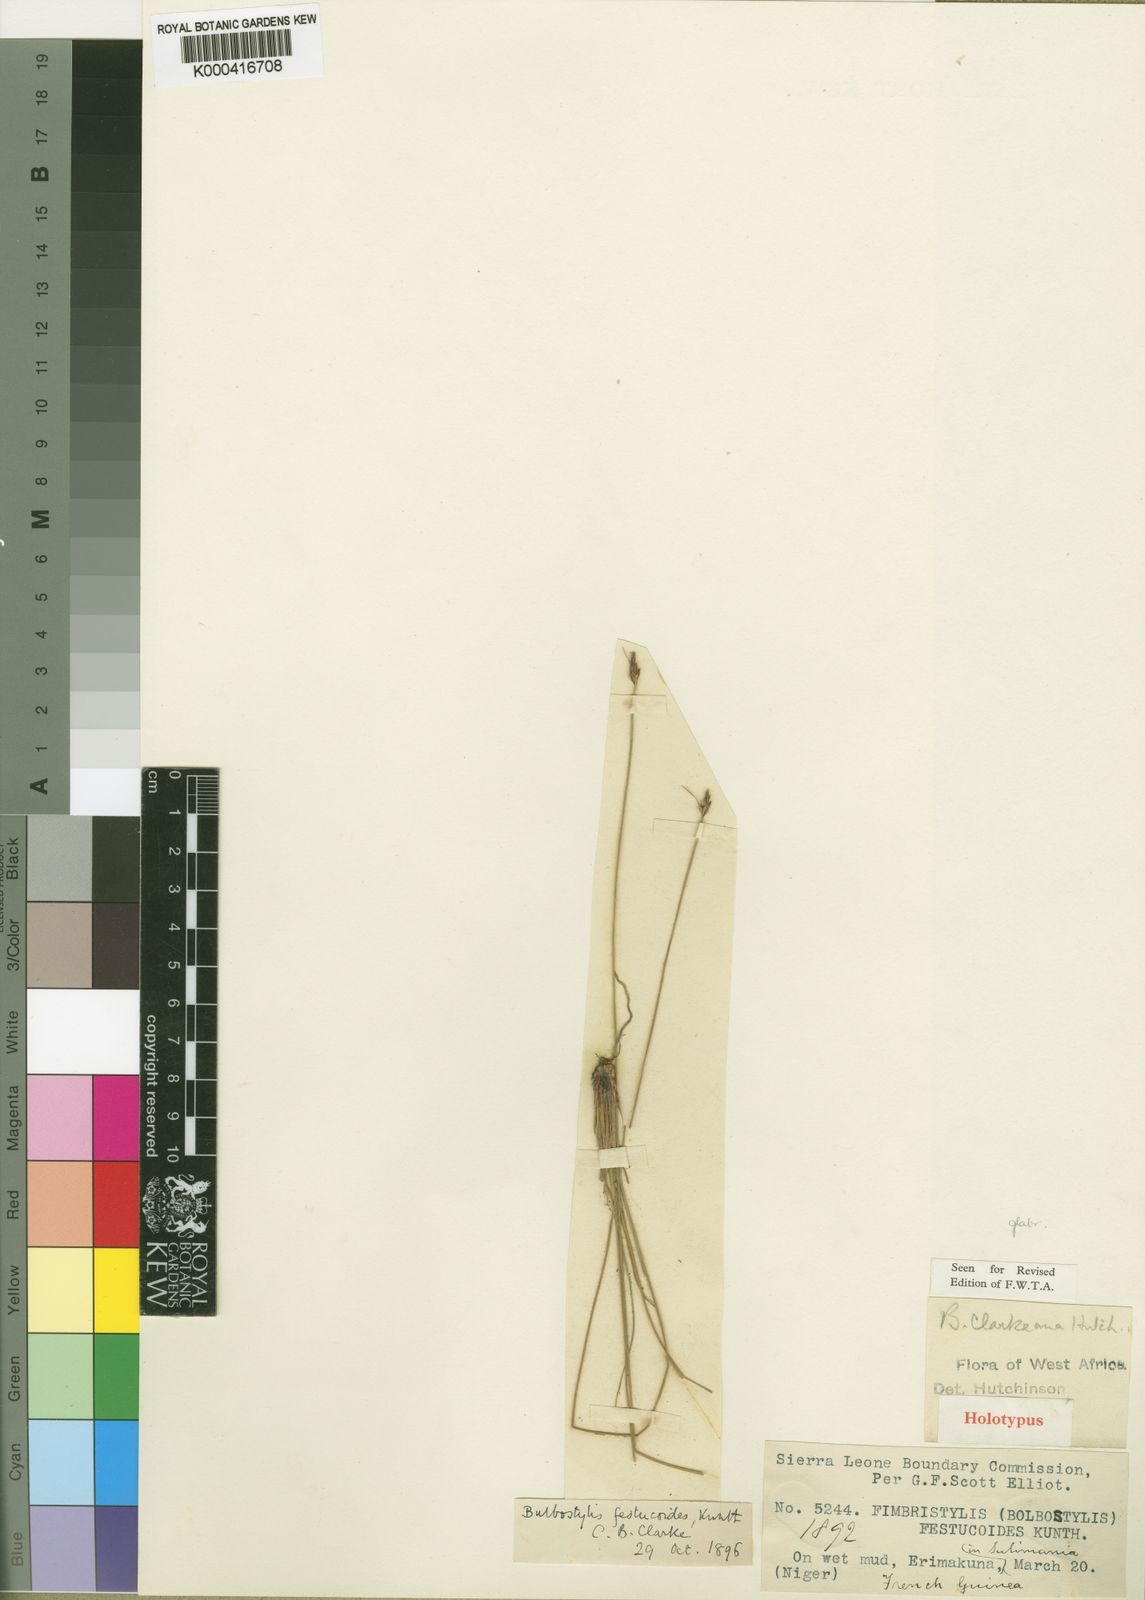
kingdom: Plantae
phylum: Tracheophyta
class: Liliopsida
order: Poales
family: Cyperaceae
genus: Bulbostylis
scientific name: Bulbostylis oritrephes
